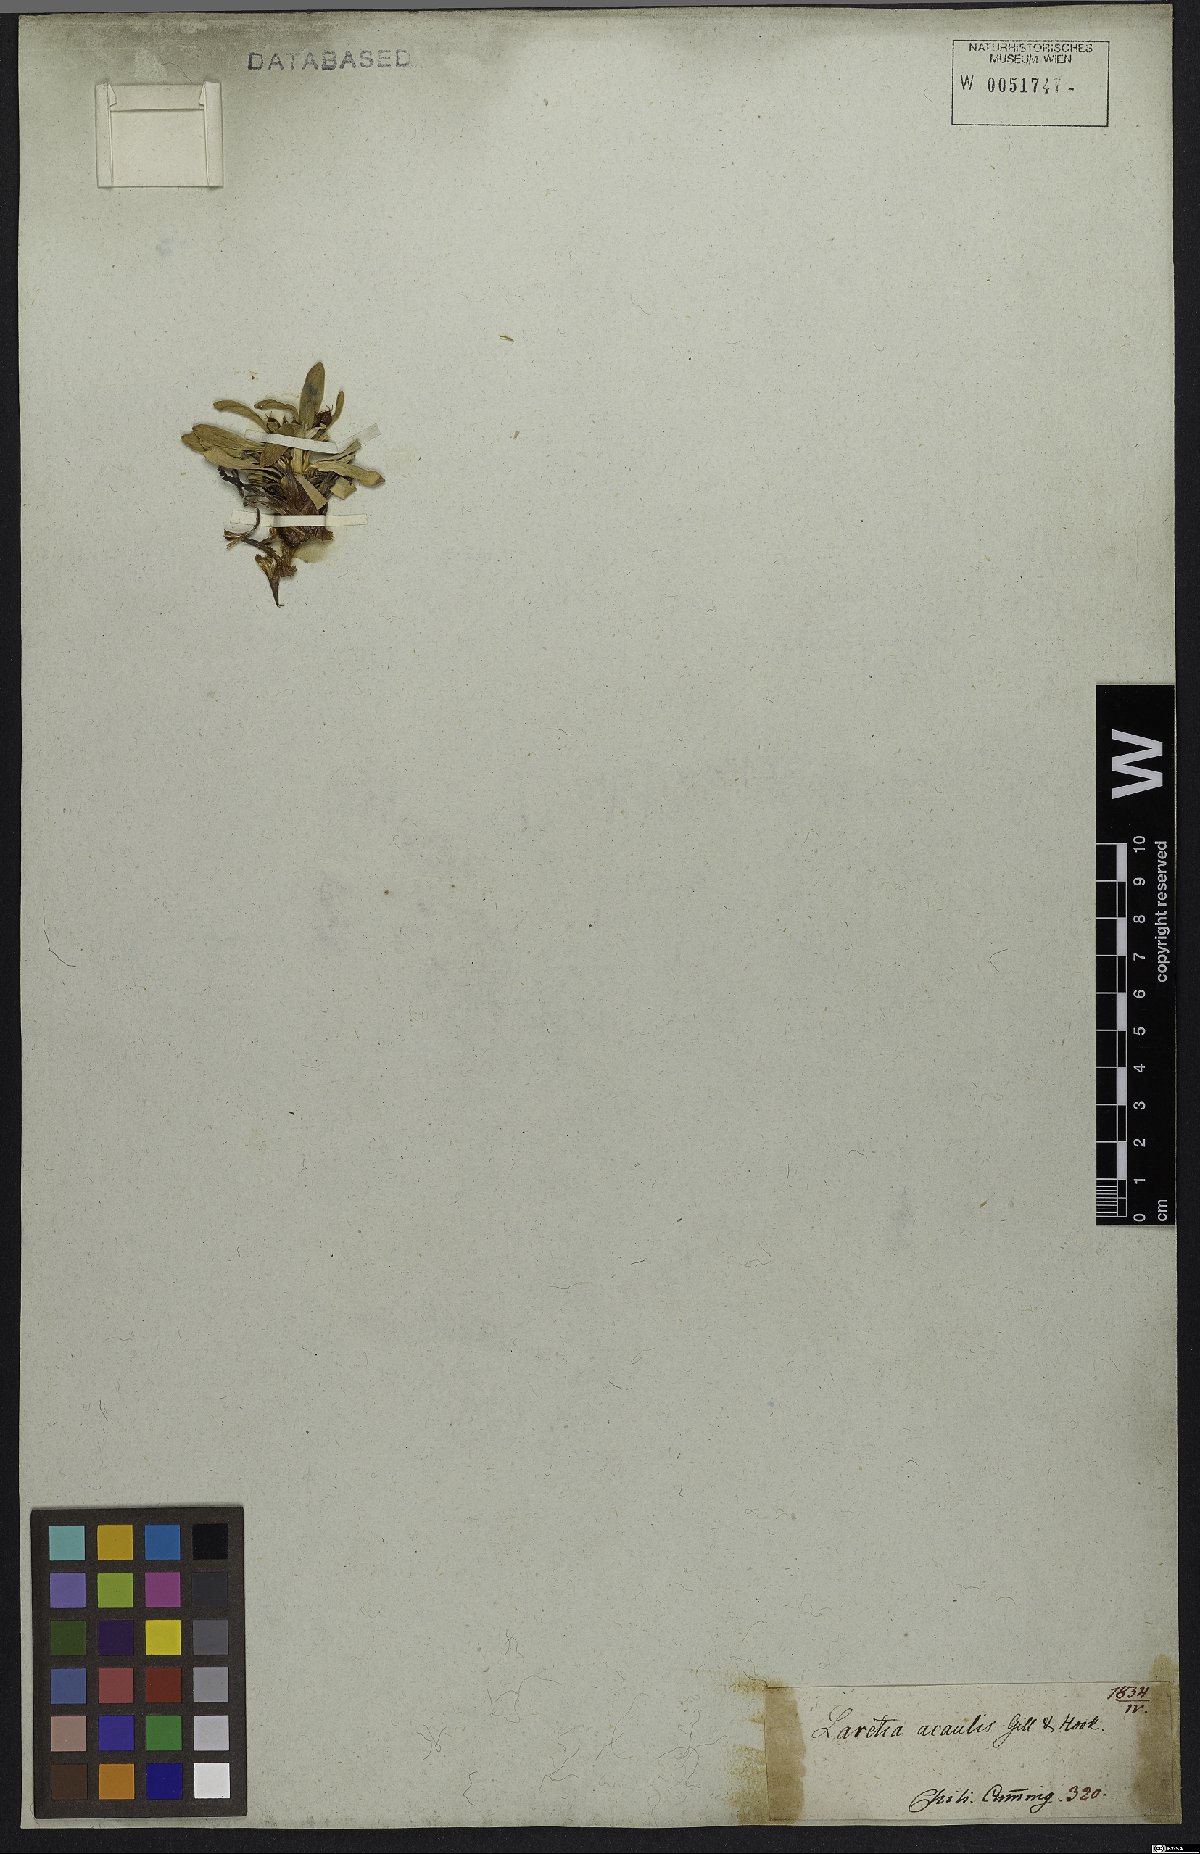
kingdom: Plantae
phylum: Tracheophyta
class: Magnoliopsida
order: Apiales
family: Apiaceae
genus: Azorella
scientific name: Azorella ruizii
